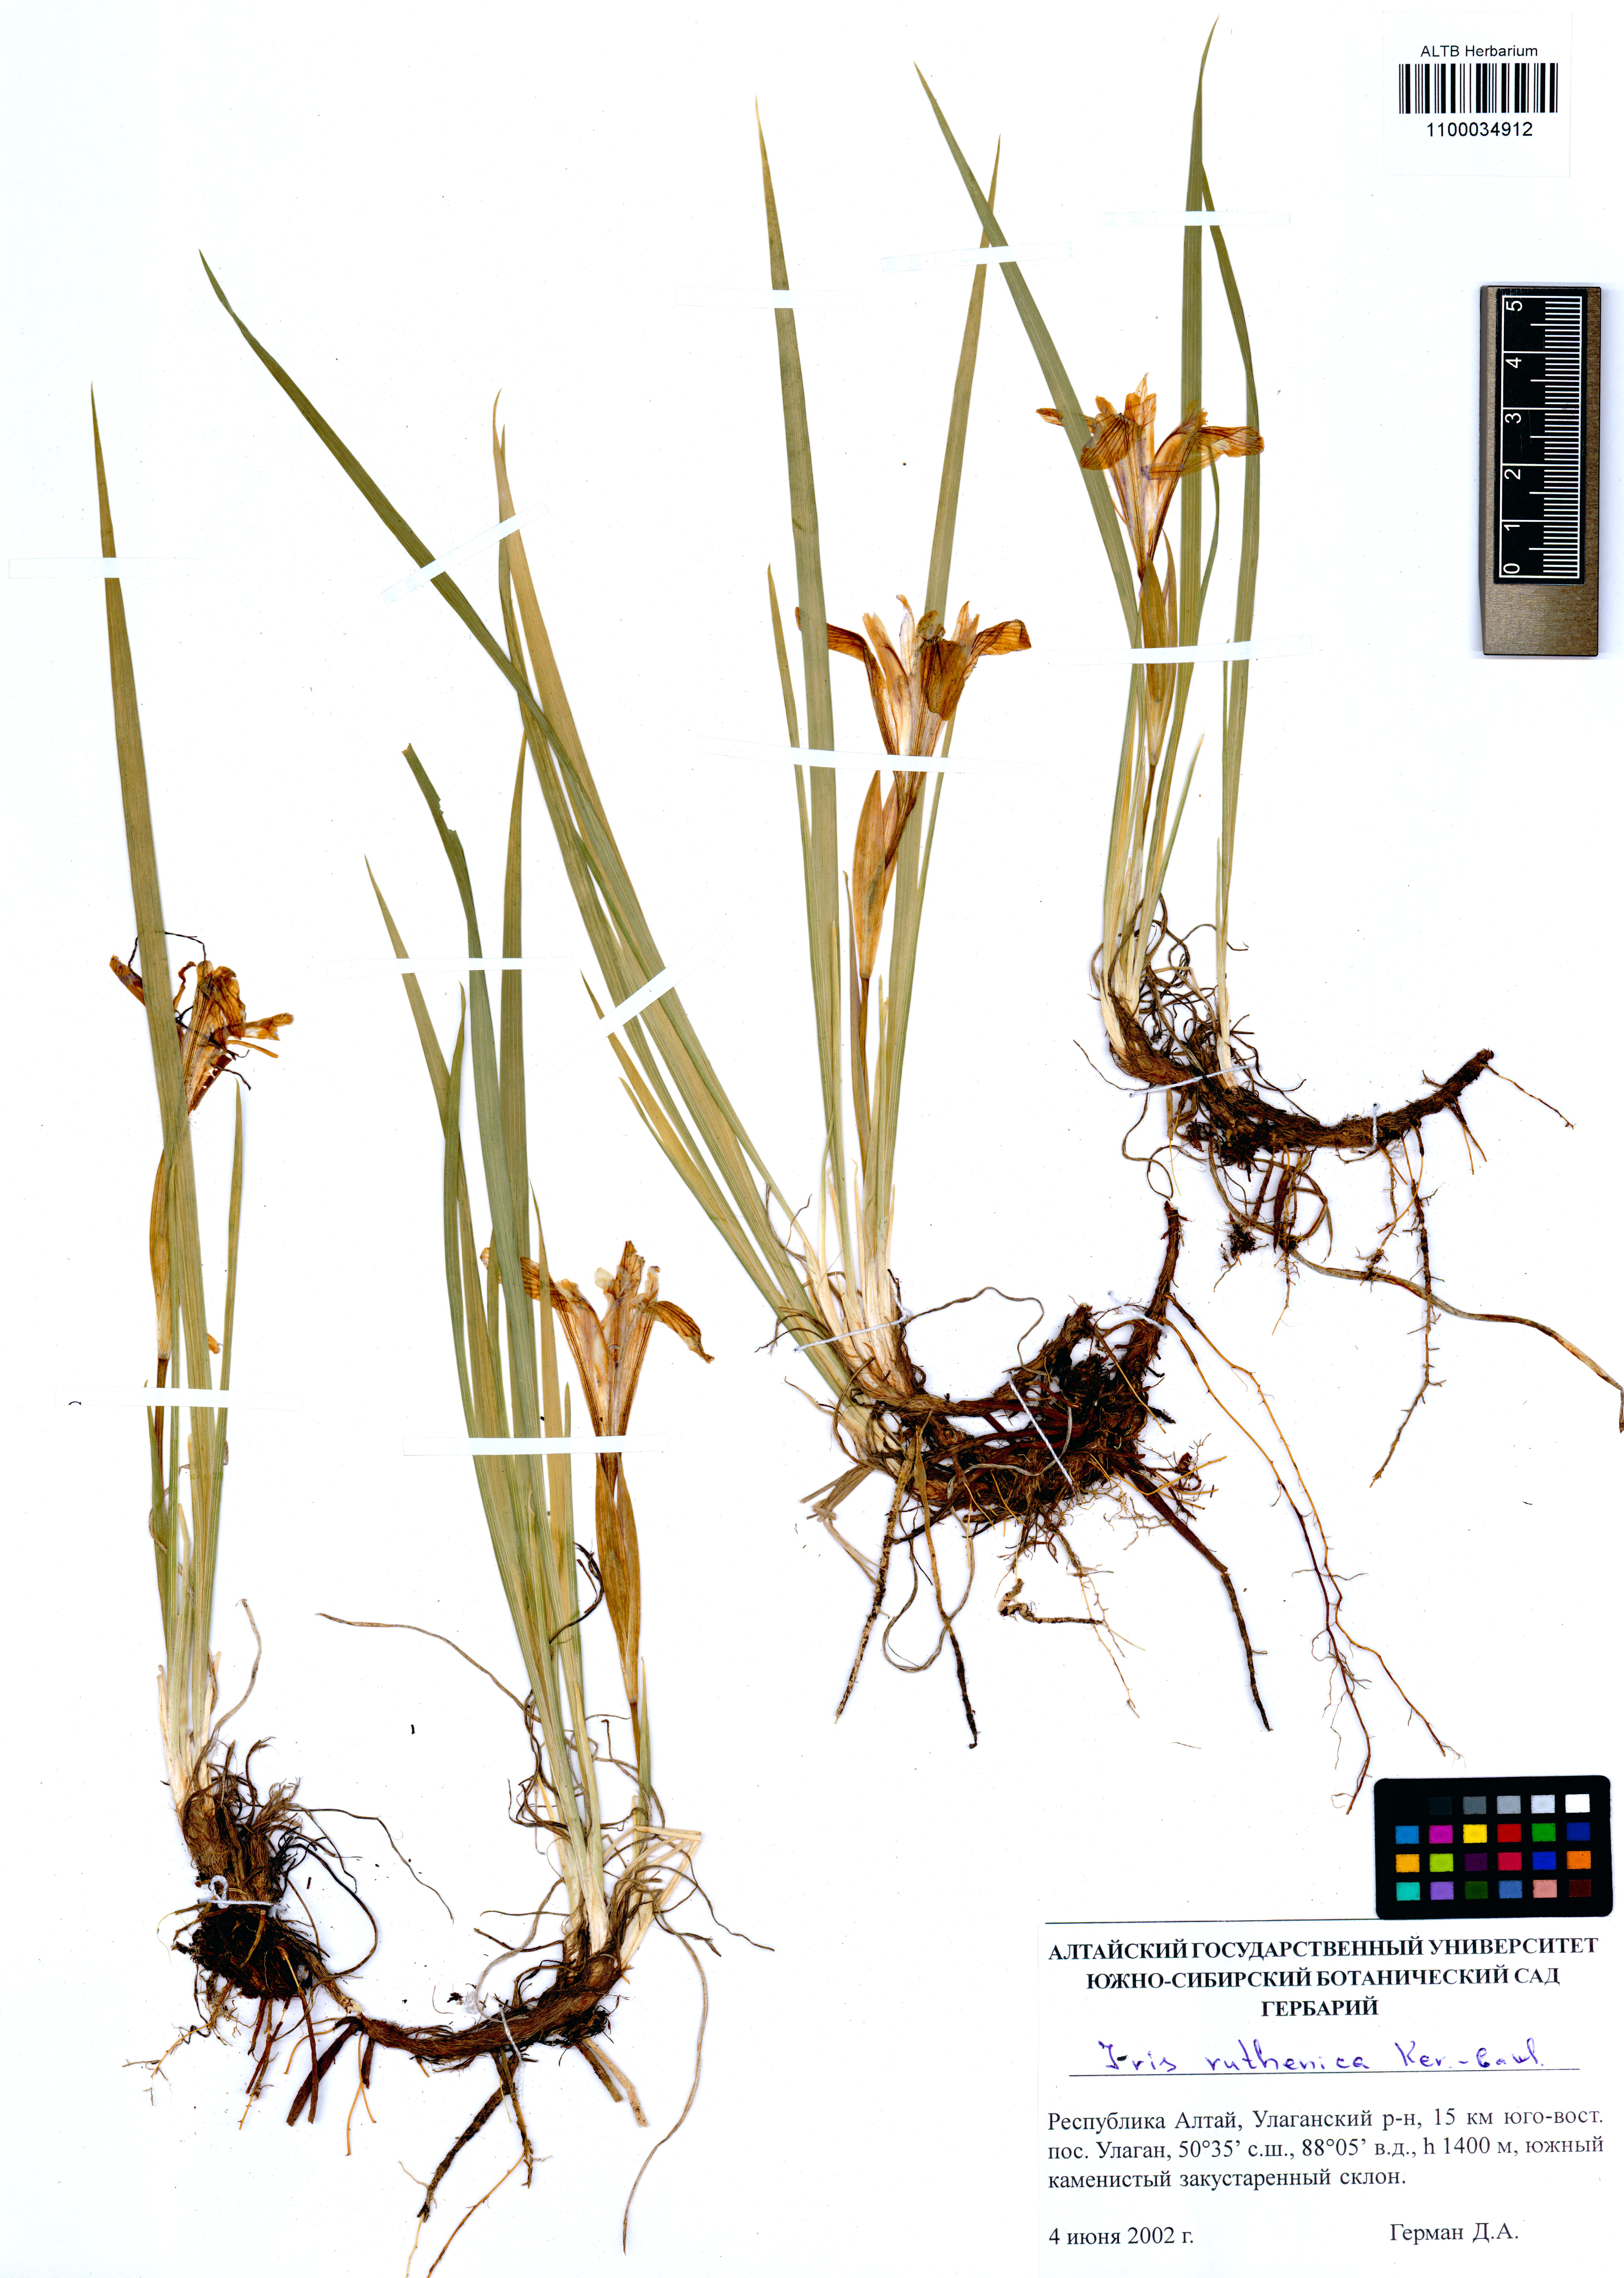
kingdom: Plantae
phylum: Tracheophyta
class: Liliopsida
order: Asparagales
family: Iridaceae
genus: Iris
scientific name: Iris ruthenica
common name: Purple-bract iris
